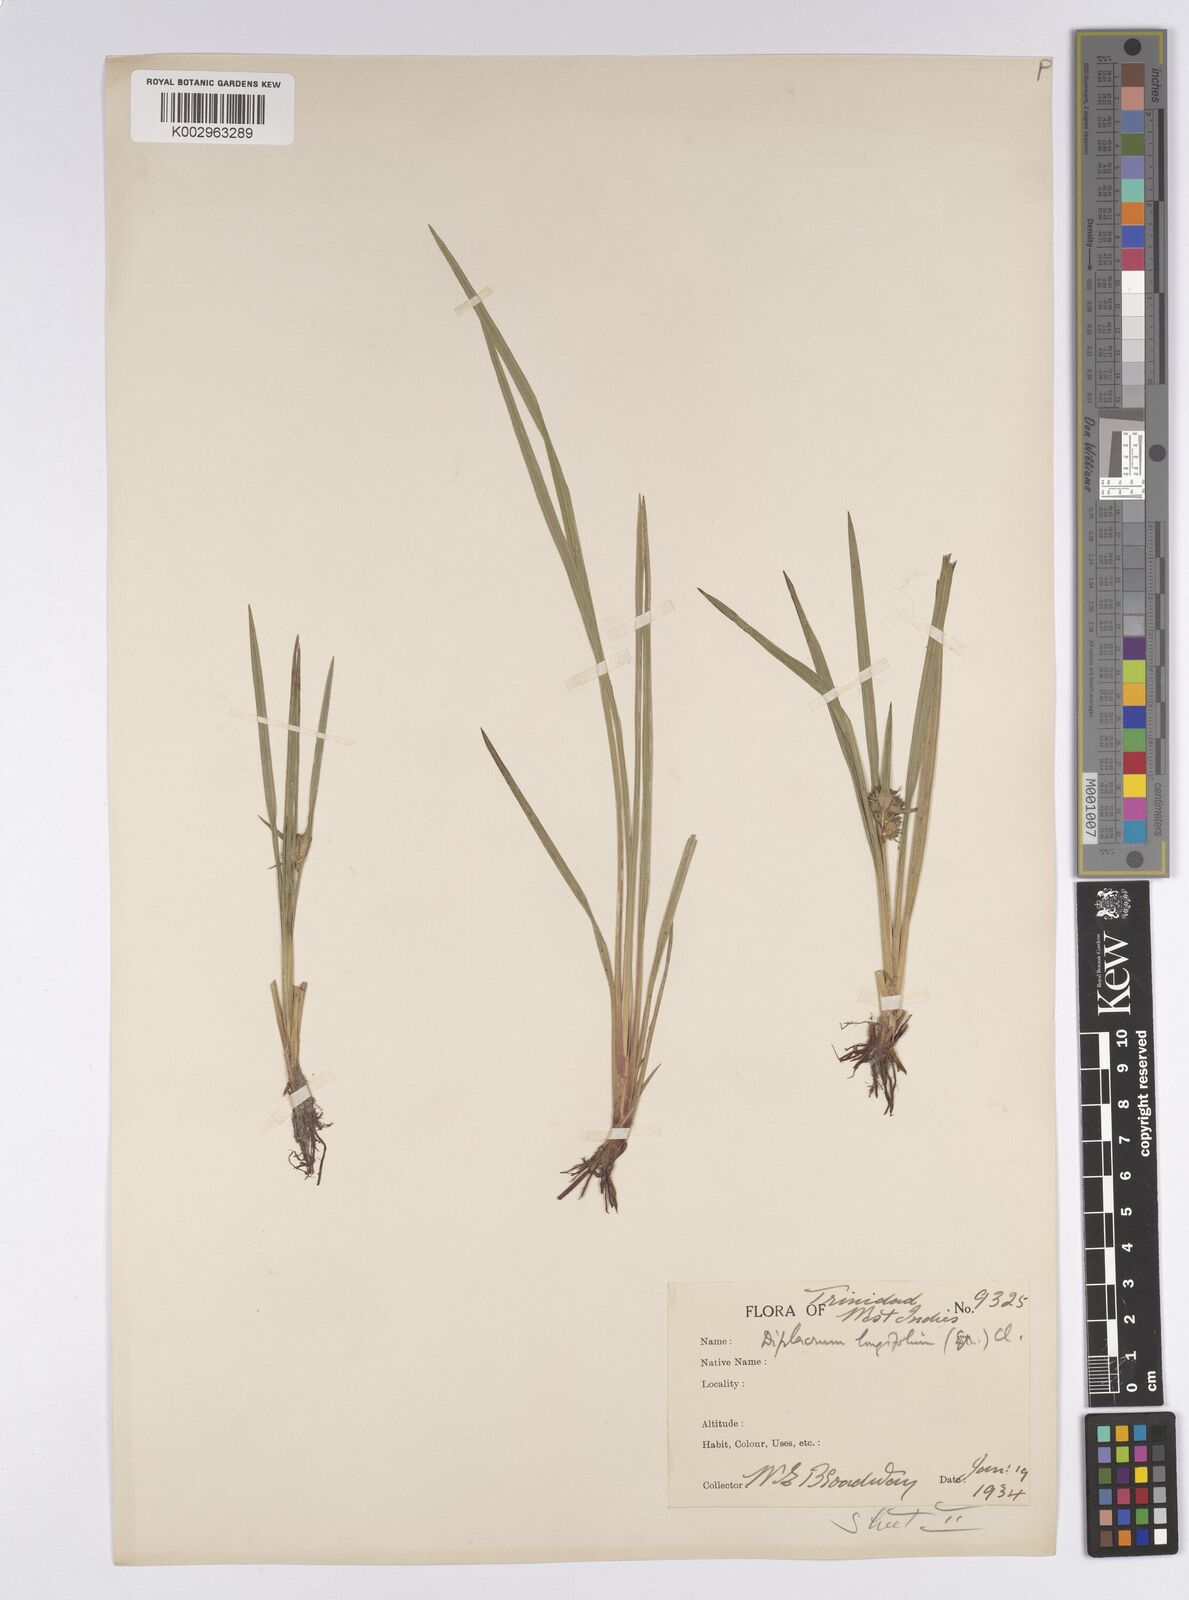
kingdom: Plantae
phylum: Tracheophyta
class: Liliopsida
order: Poales
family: Cyperaceae
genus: Diplacrum
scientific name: Diplacrum capitatum
